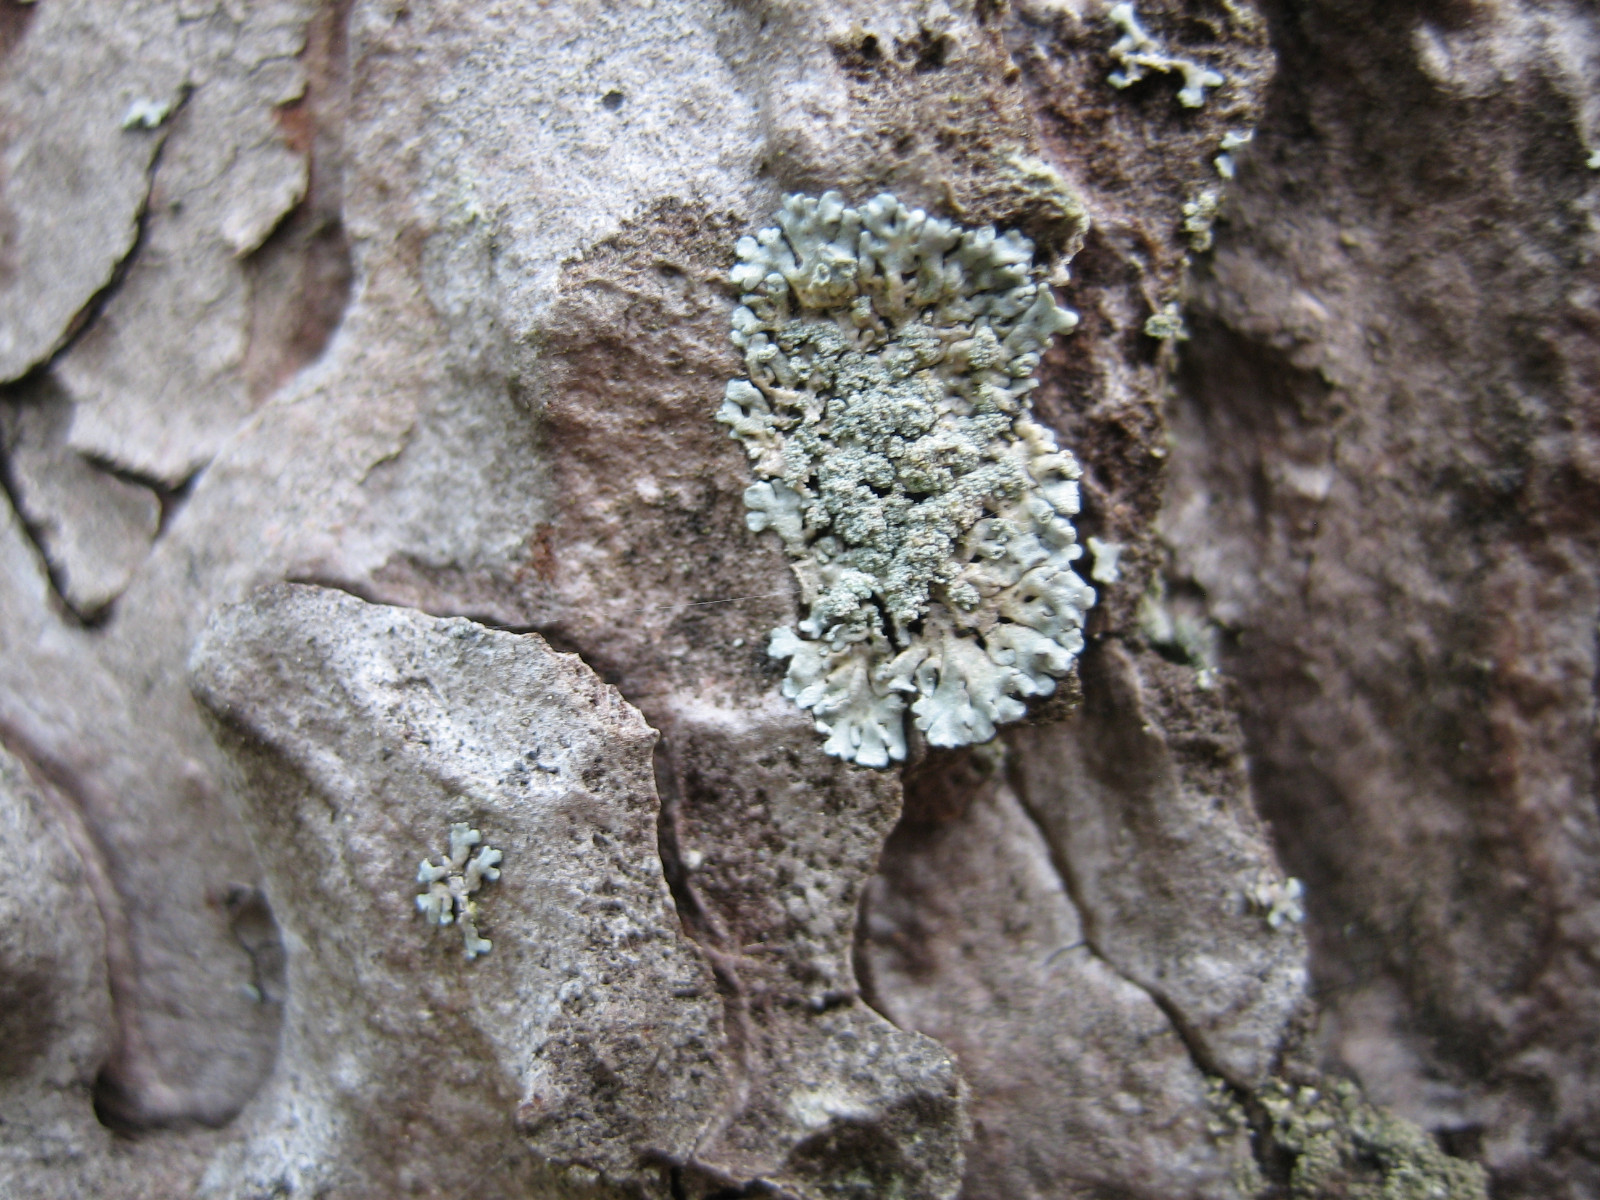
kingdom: Fungi
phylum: Ascomycota
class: Lecanoromycetes
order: Lecanorales
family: Parmeliaceae
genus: Parmeliopsis
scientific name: Parmeliopsis hyperopta
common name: grå stolpelav
